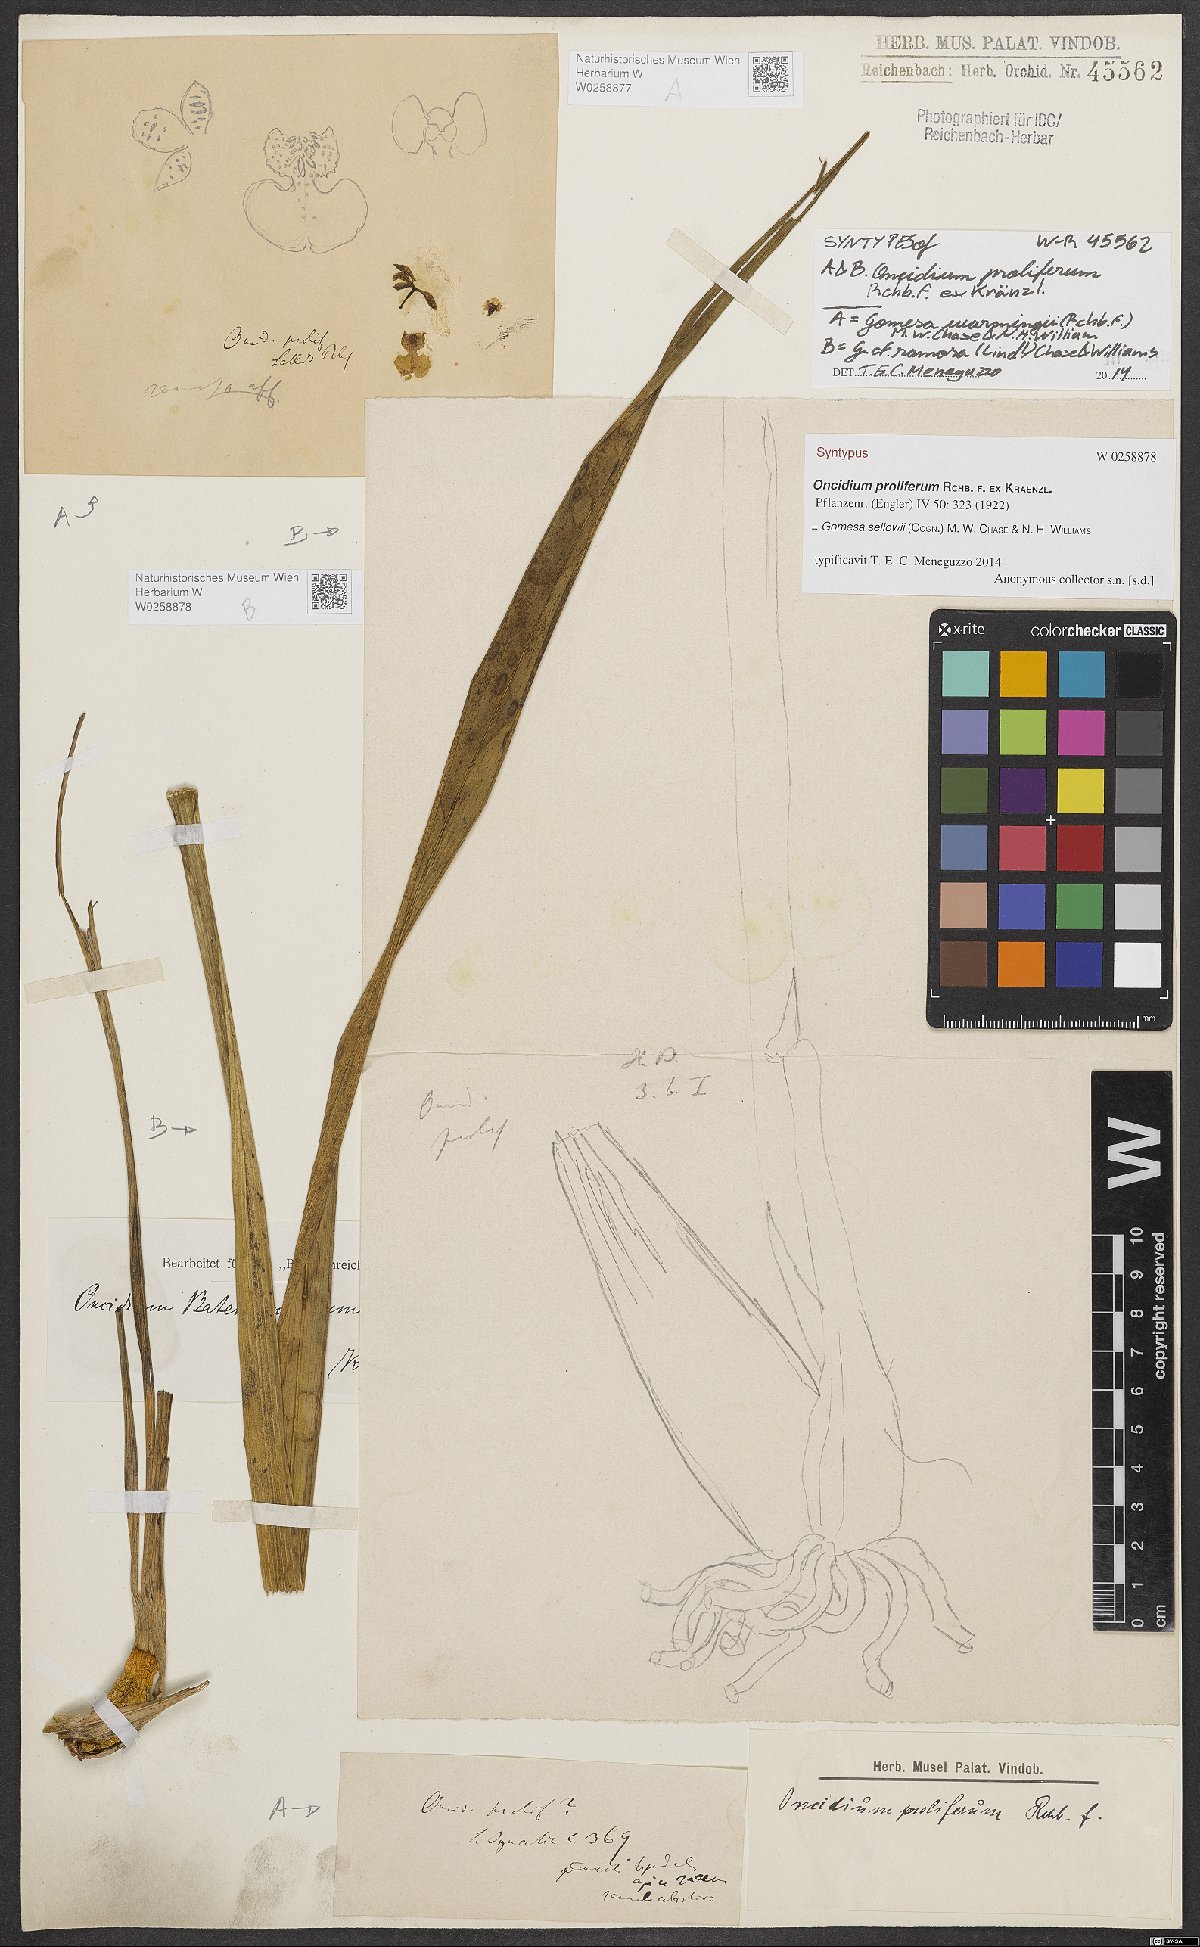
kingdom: Plantae
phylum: Tracheophyta
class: Liliopsida
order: Asparagales
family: Orchidaceae
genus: Gomesa
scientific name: Gomesa sellowii
